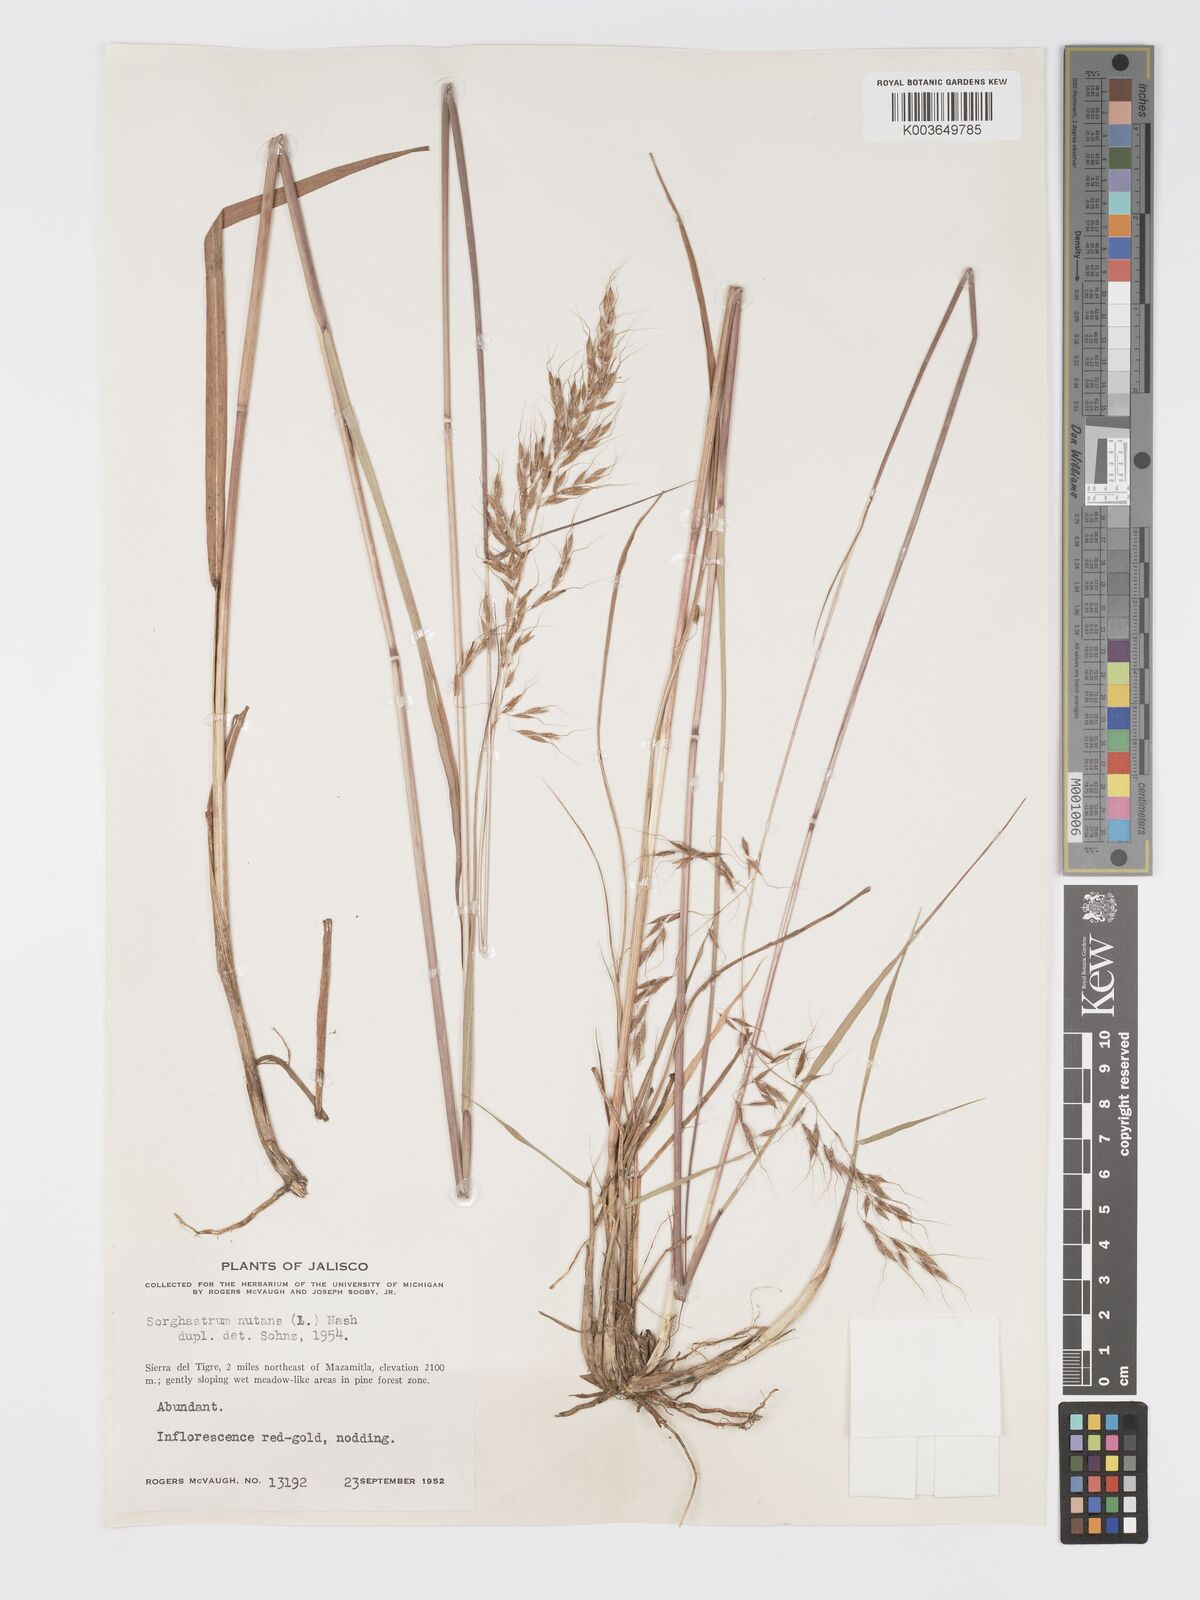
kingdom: Plantae
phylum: Tracheophyta
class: Liliopsida
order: Poales
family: Poaceae
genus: Sorghastrum
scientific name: Sorghastrum nutans
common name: Indian grass
